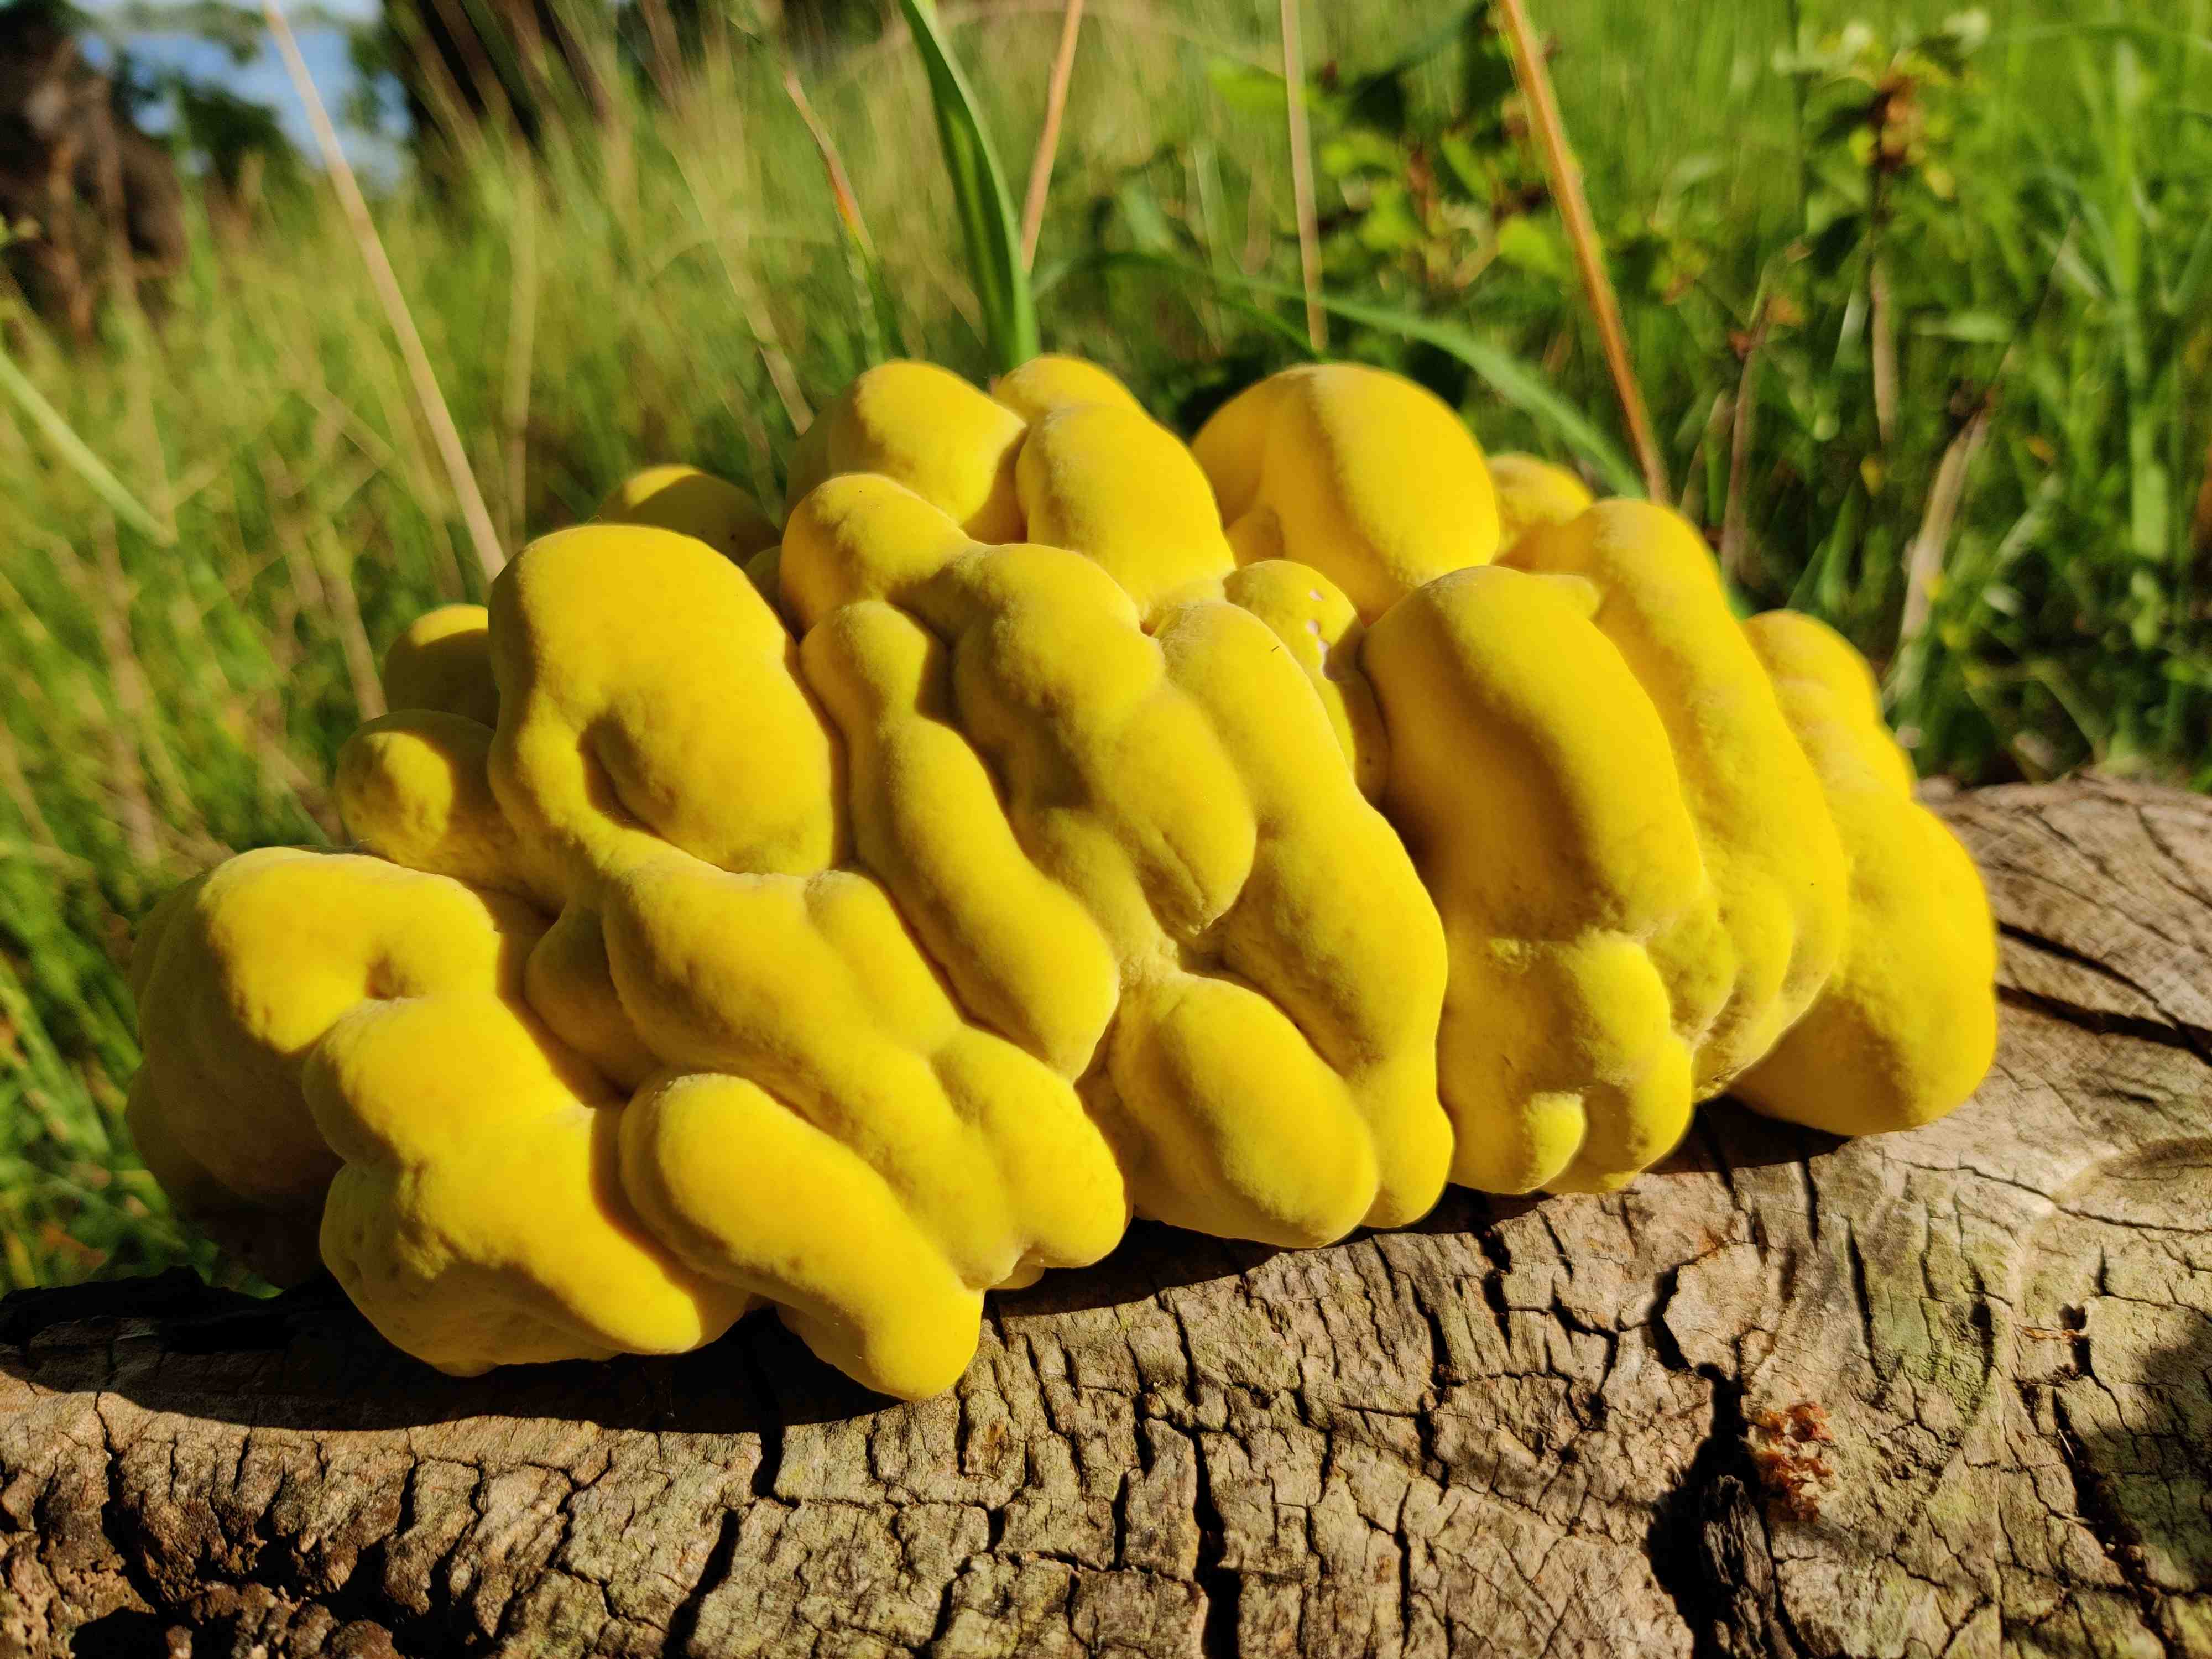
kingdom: Fungi
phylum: Basidiomycota
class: Agaricomycetes
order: Polyporales
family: Laetiporaceae
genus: Laetiporus
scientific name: Laetiporus sulphureus
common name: svovlporesvamp
